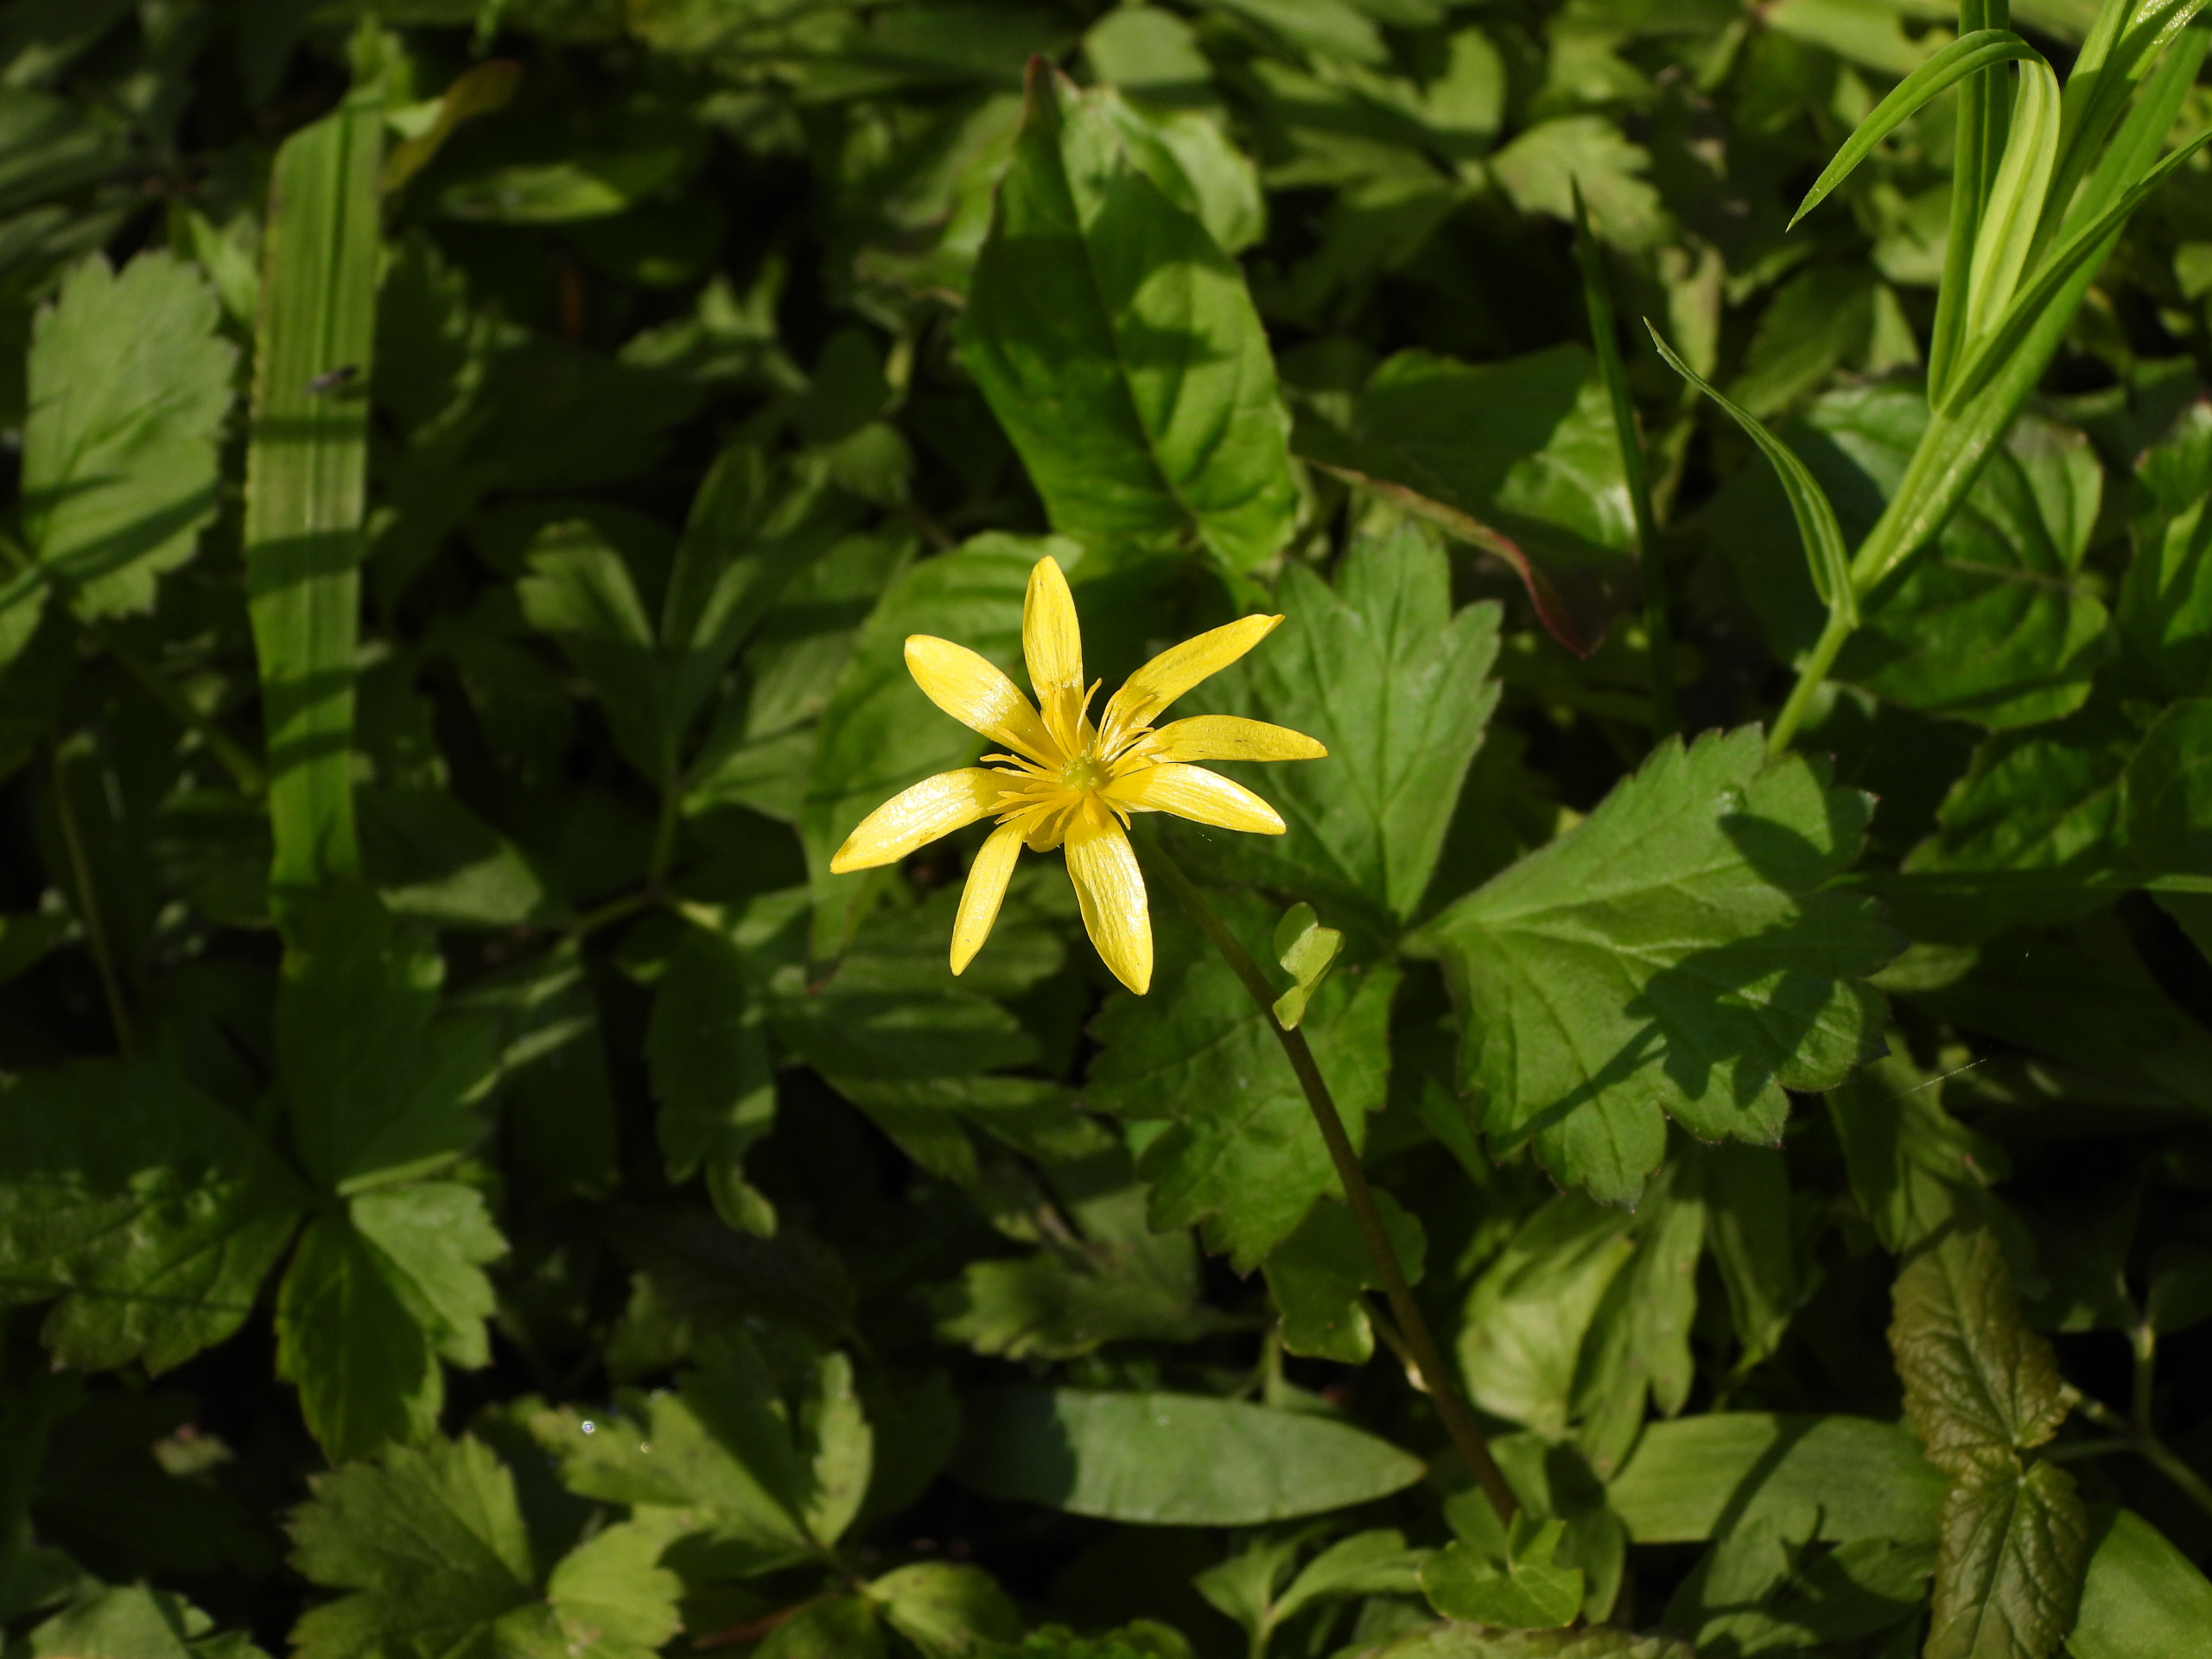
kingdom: Plantae
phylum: Tracheophyta
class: Magnoliopsida
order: Ranunculales
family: Ranunculaceae
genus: Ficaria
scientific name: Ficaria verna
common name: Vorterod
